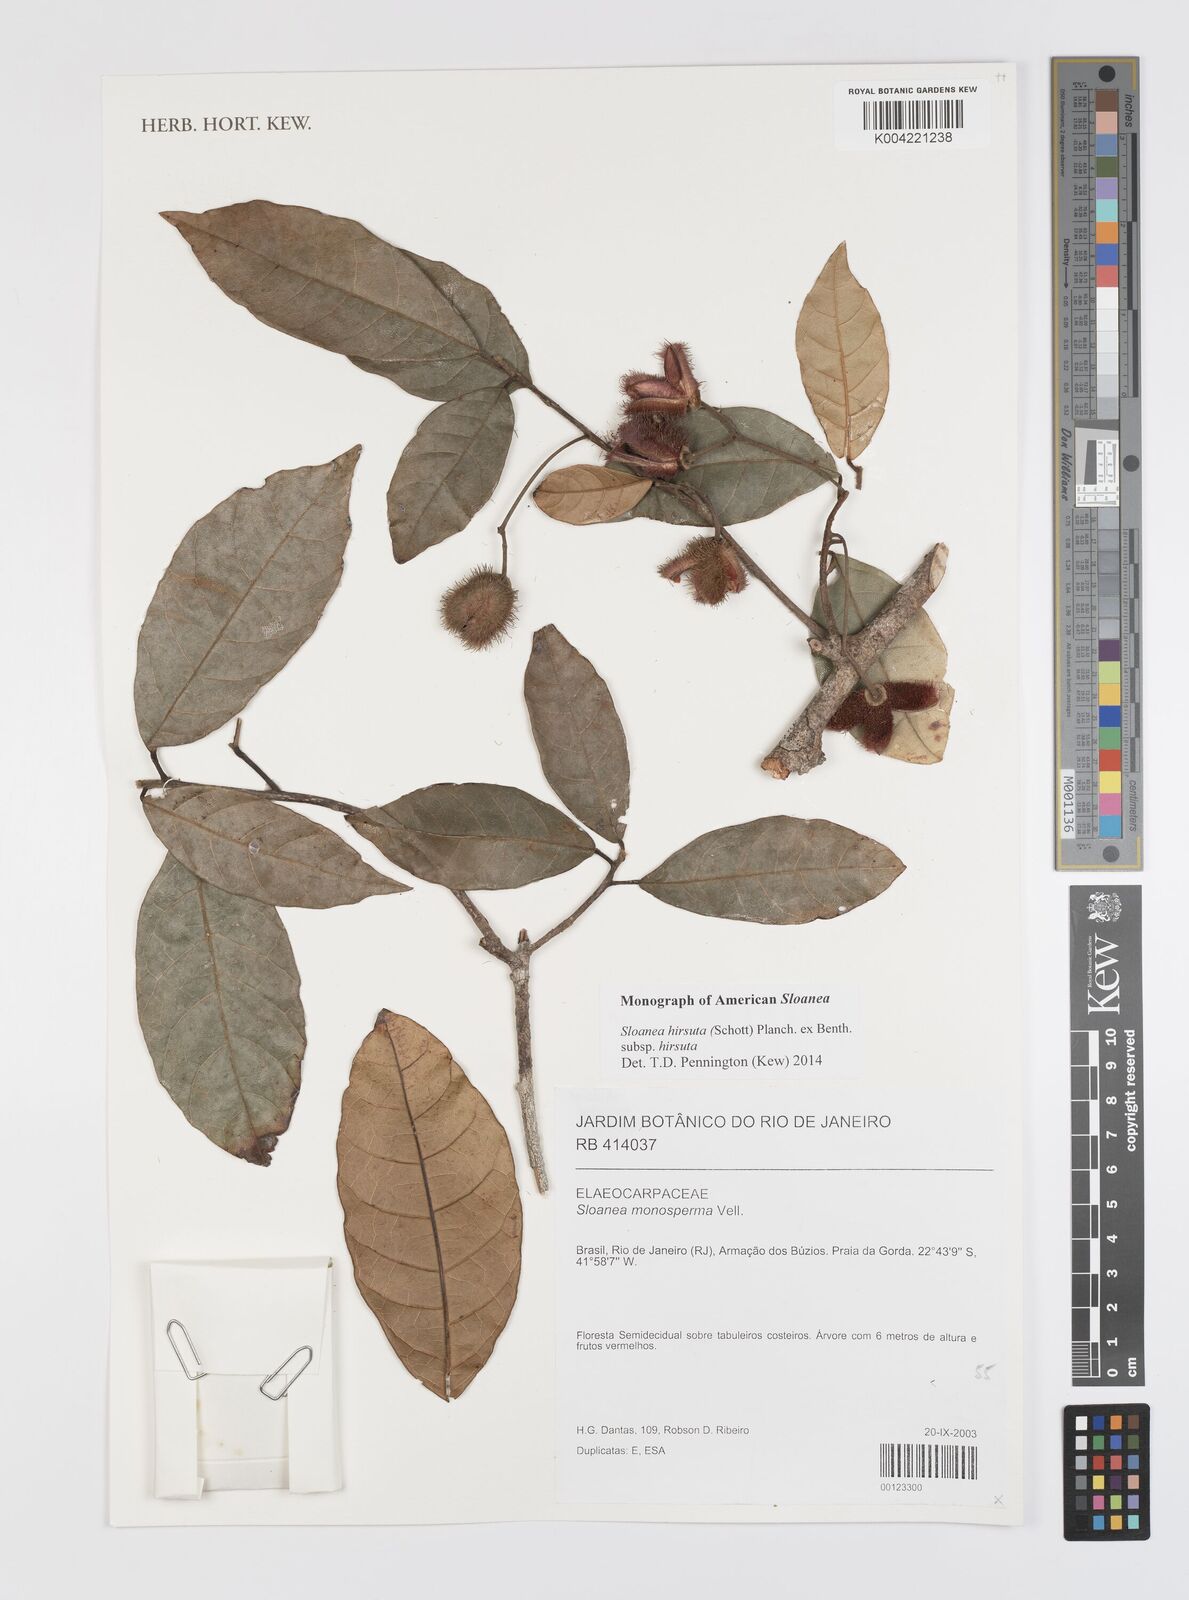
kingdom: Plantae
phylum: Tracheophyta
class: Magnoliopsida
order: Oxalidales
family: Elaeocarpaceae
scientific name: Elaeocarpaceae
